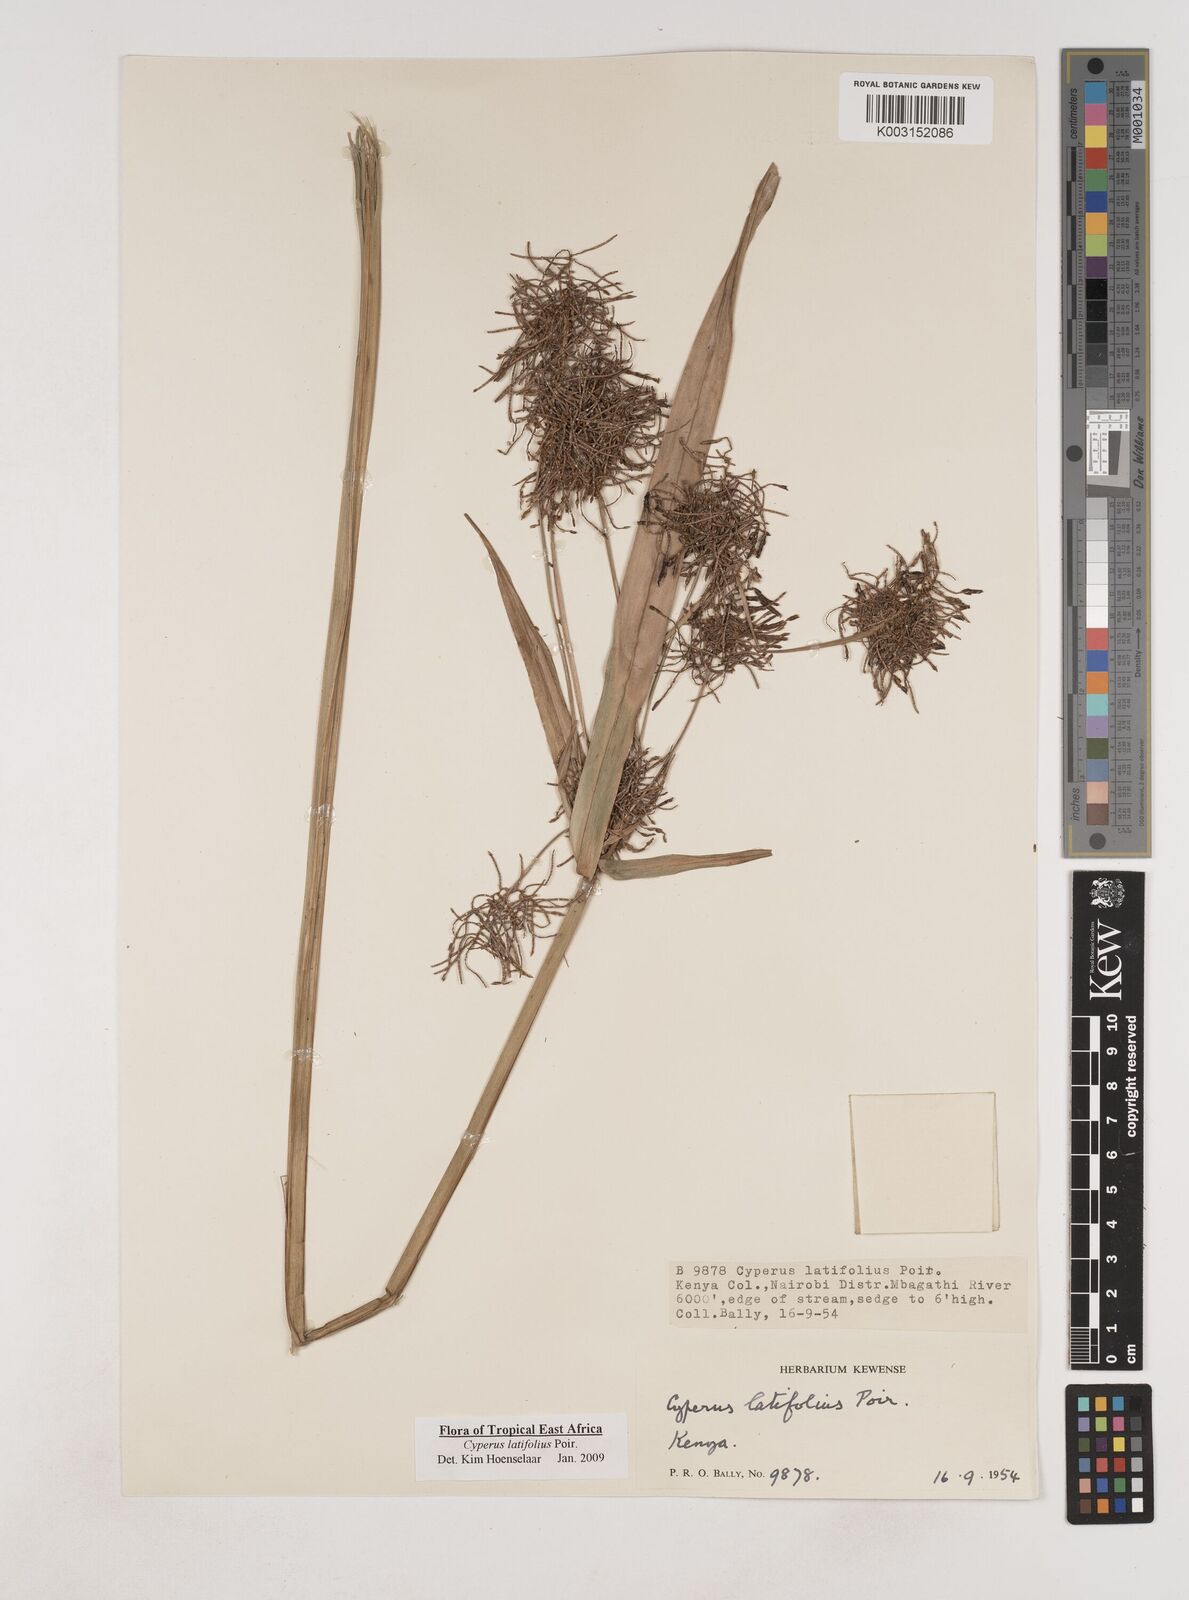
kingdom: Plantae
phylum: Tracheophyta
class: Liliopsida
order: Poales
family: Cyperaceae
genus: Cyperus
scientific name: Cyperus latifolius
